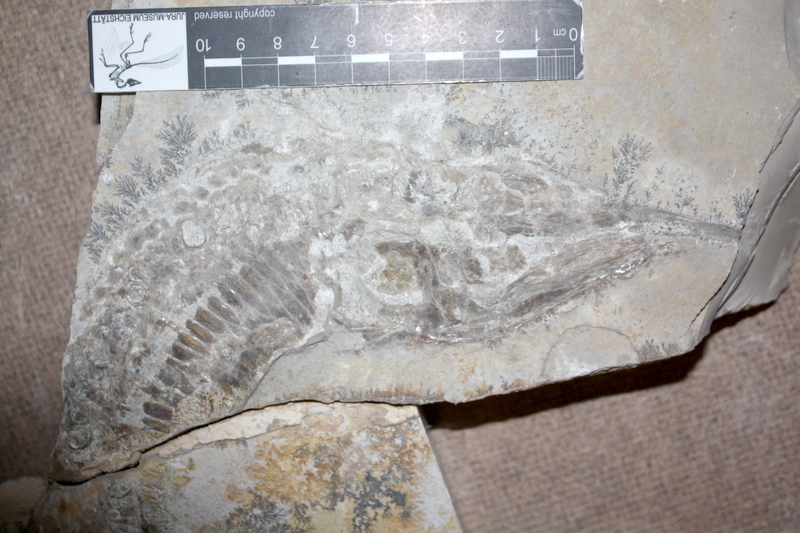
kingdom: Animalia
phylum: Chordata
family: Aspidorhynchidae
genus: Aspidorhynchus
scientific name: Aspidorhynchus acutirostris
